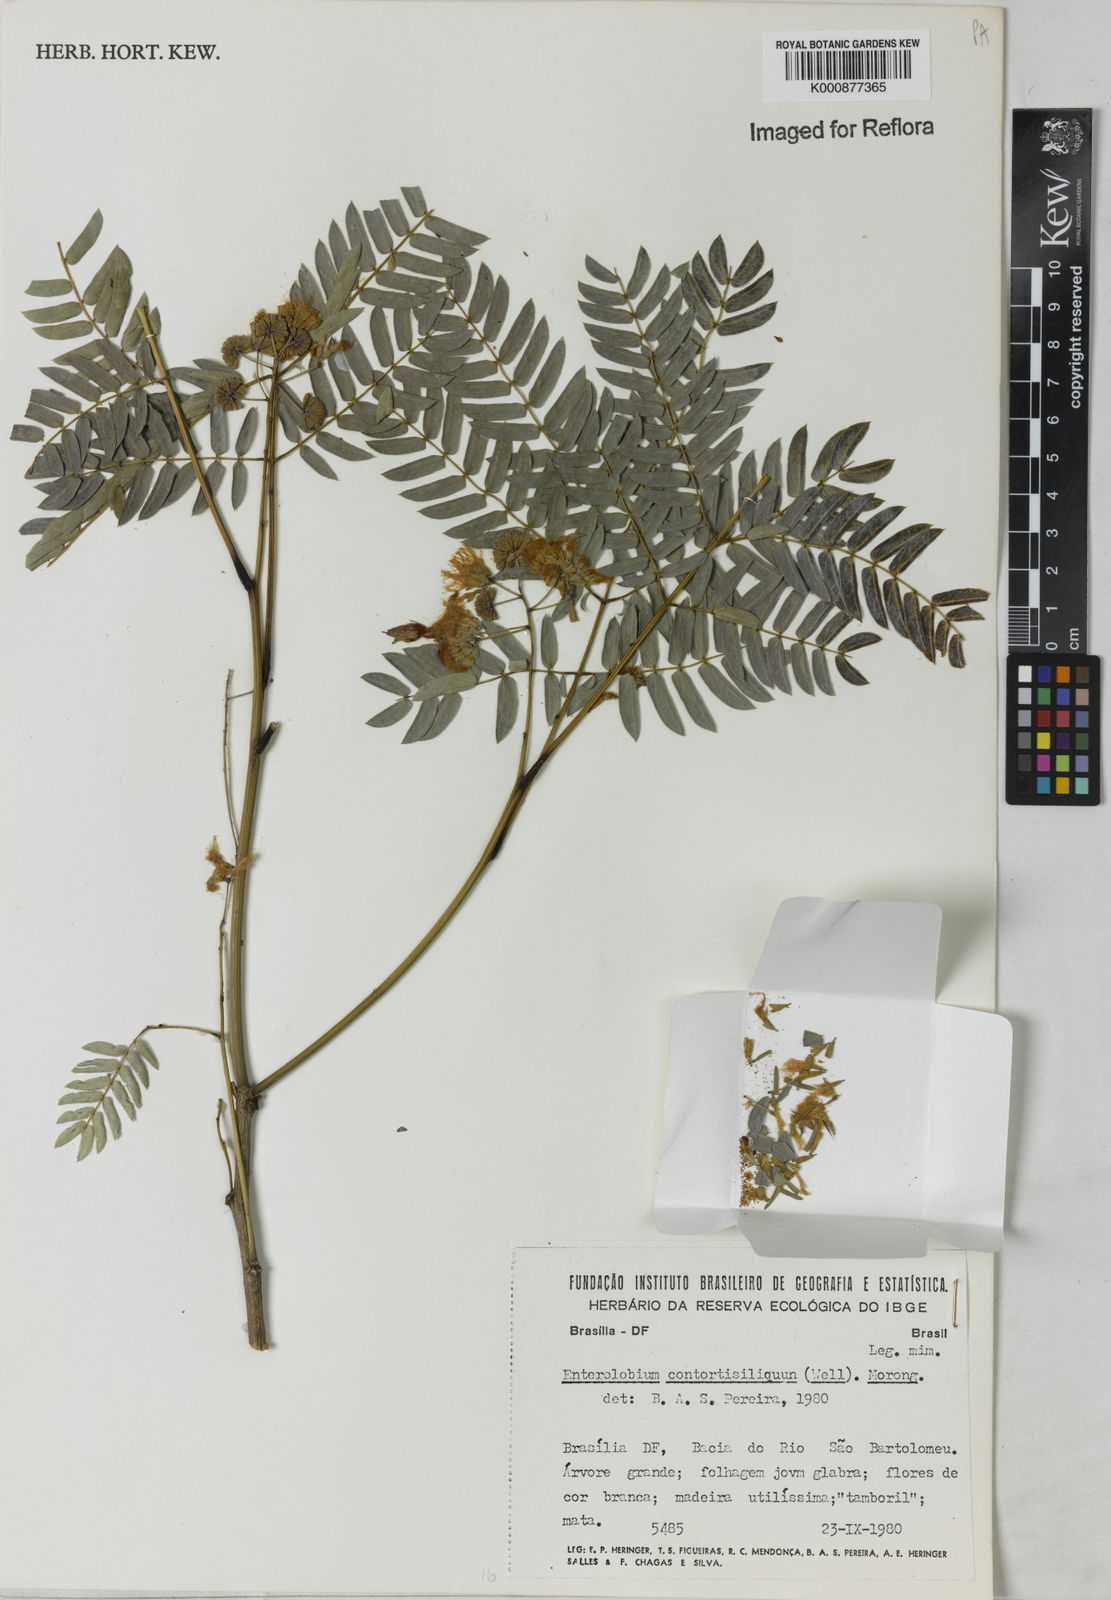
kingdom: Plantae
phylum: Tracheophyta
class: Magnoliopsida
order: Fabales
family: Fabaceae
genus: Enterolobium
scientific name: Enterolobium contortisiliquum
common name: Pacara earpod tree
